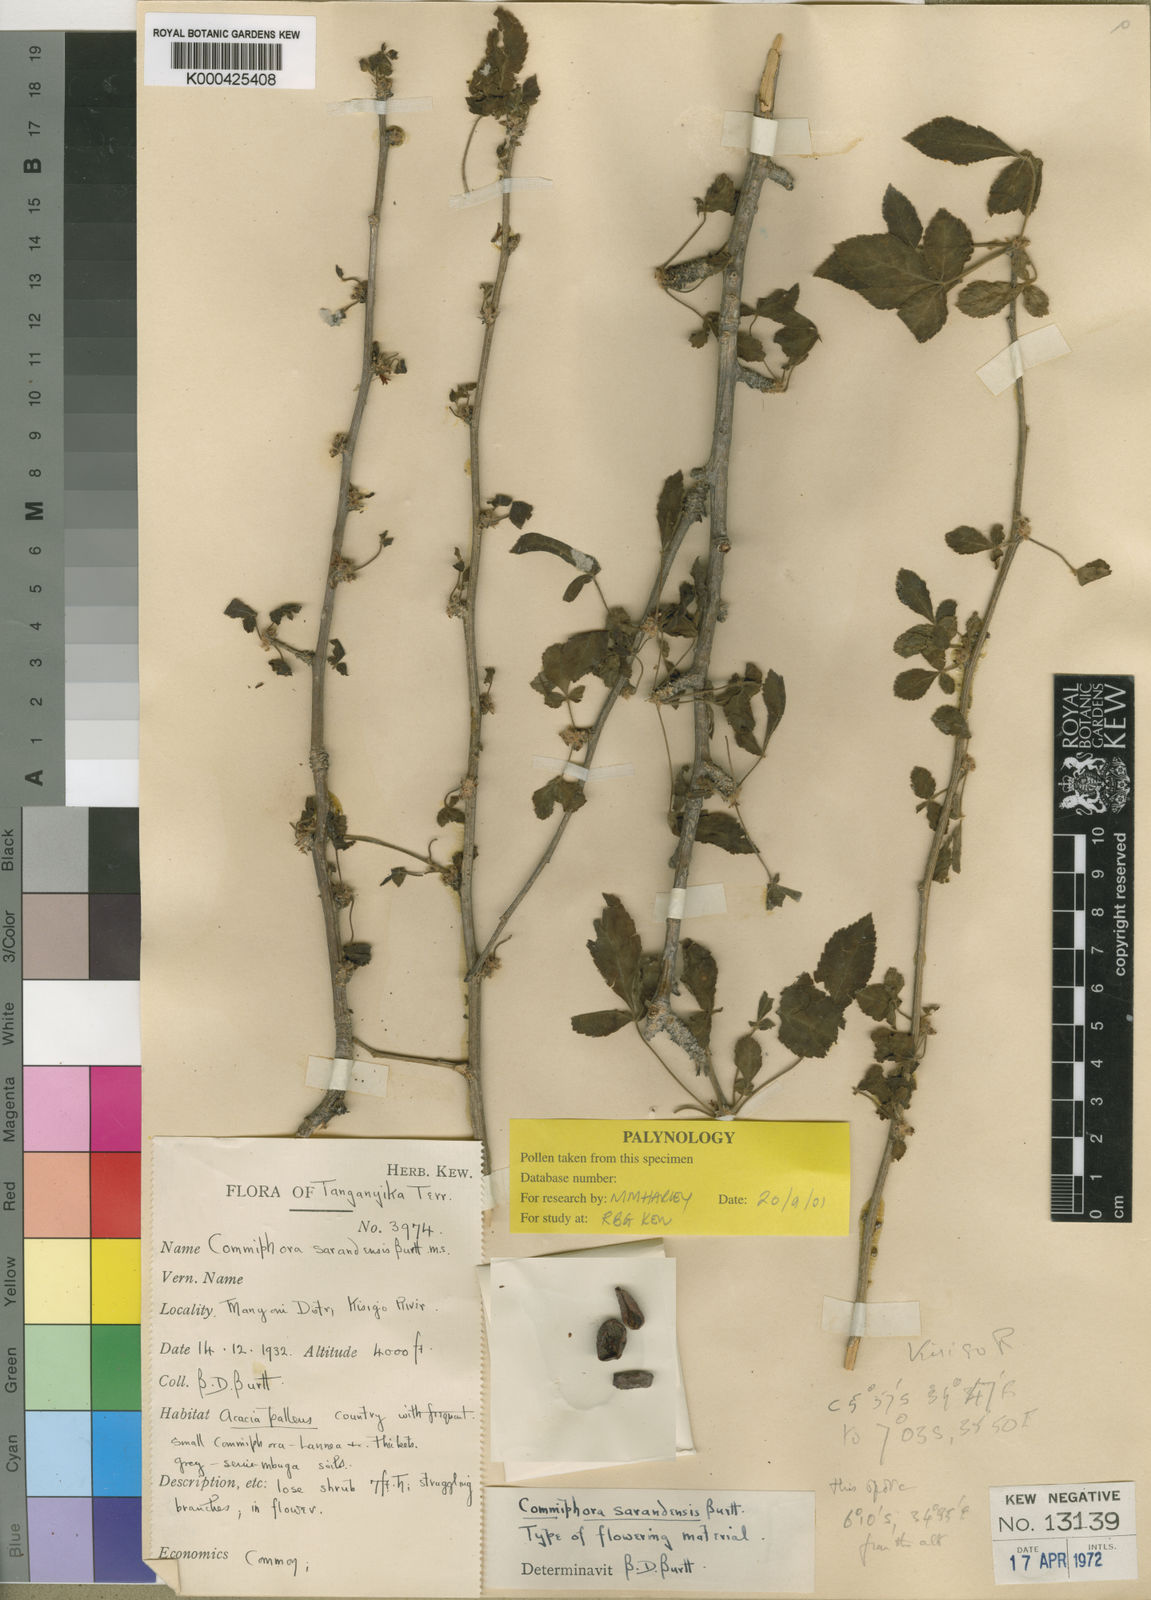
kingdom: Plantae
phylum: Tracheophyta
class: Magnoliopsida
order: Sapindales
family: Burseraceae
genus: Commiphora
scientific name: Commiphora sarandensis
